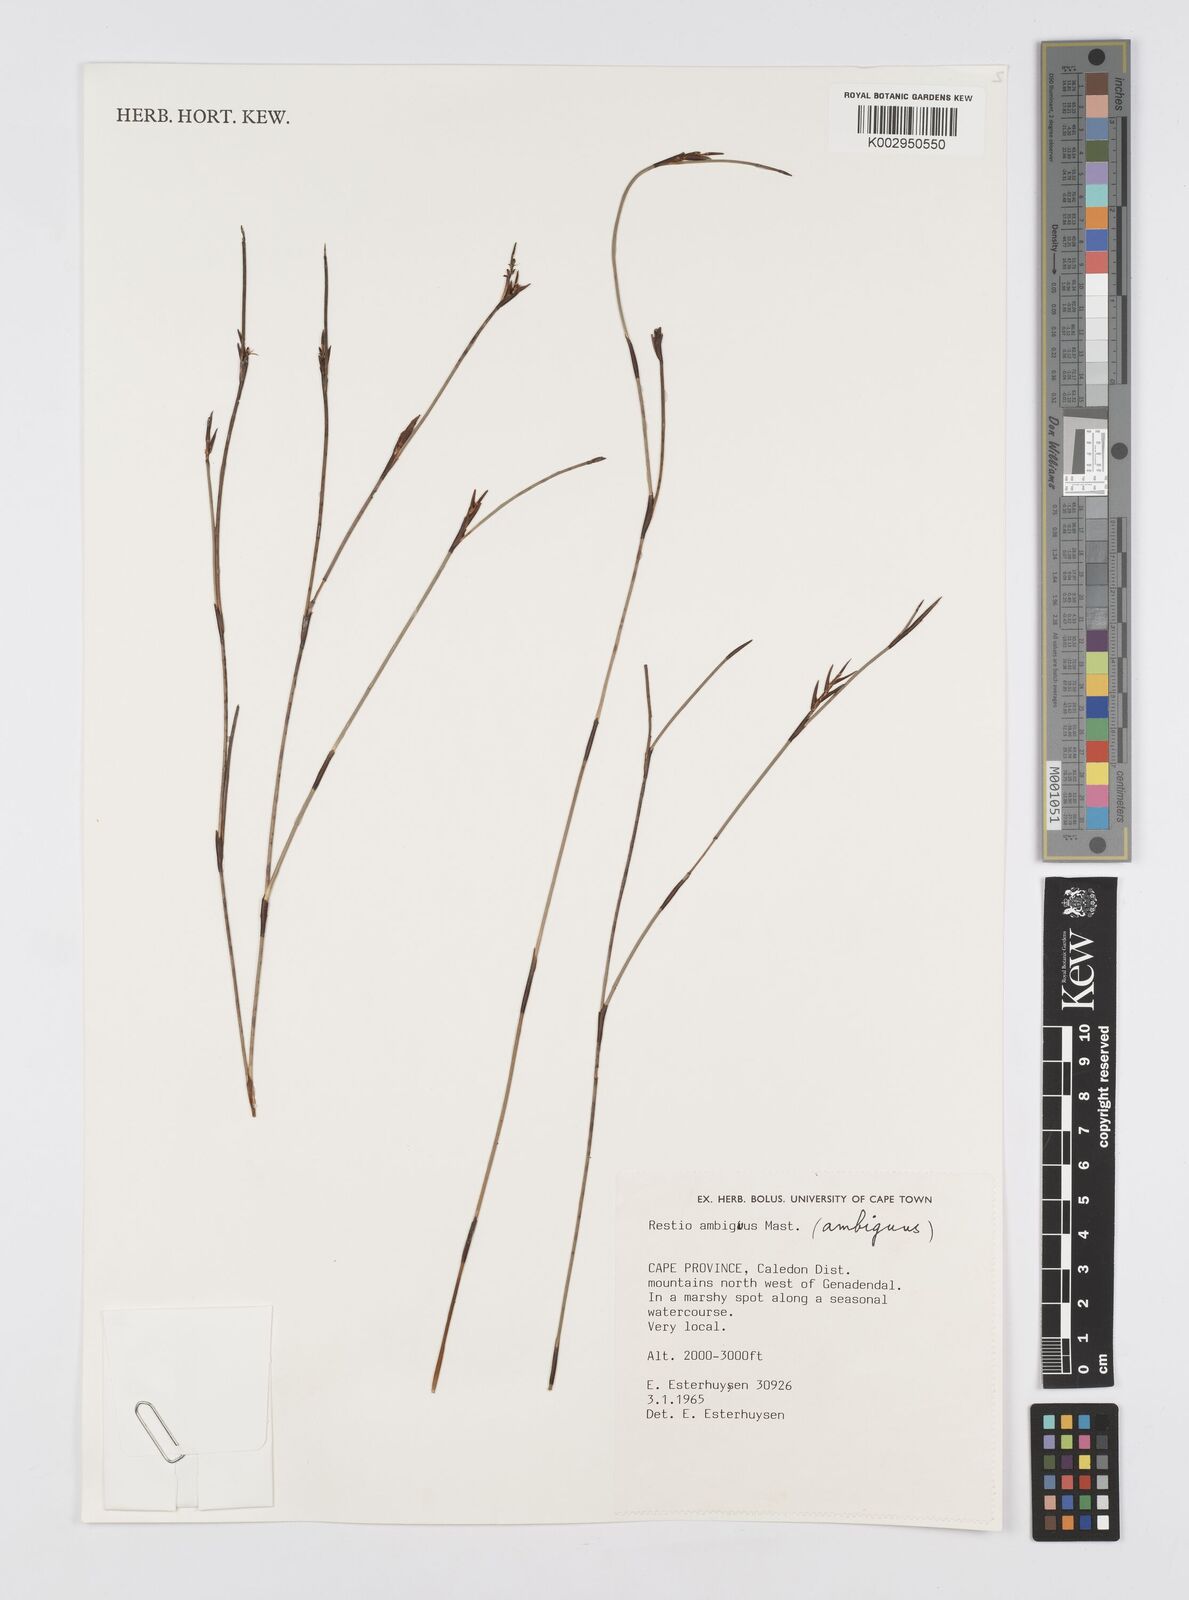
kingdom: Plantae
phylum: Tracheophyta
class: Liliopsida
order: Poales
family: Restionaceae
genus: Soroveta
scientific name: Soroveta ambigua
